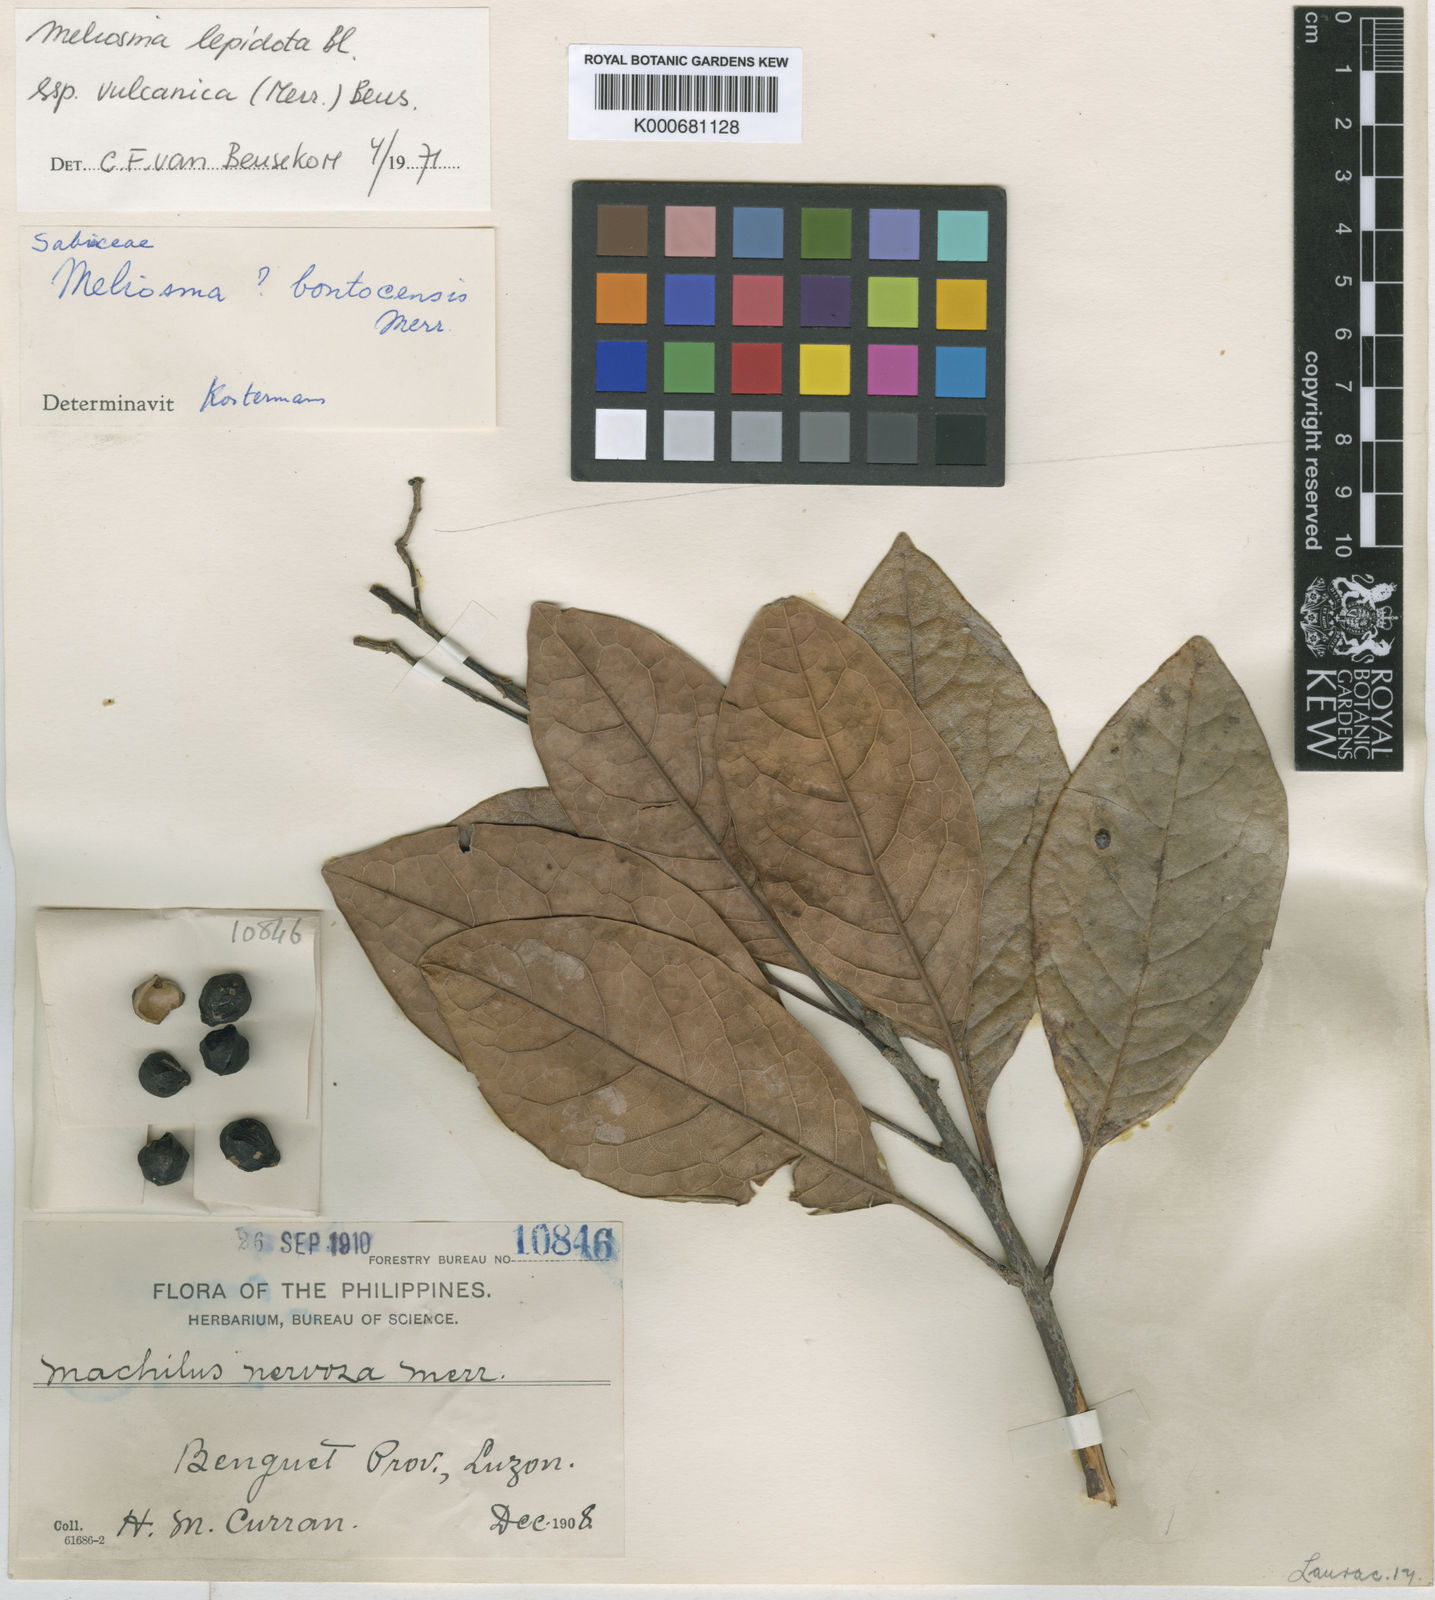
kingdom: Plantae
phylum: Tracheophyta
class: Magnoliopsida
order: Proteales
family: Sabiaceae
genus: Meliosma
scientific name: Meliosma lepidota
